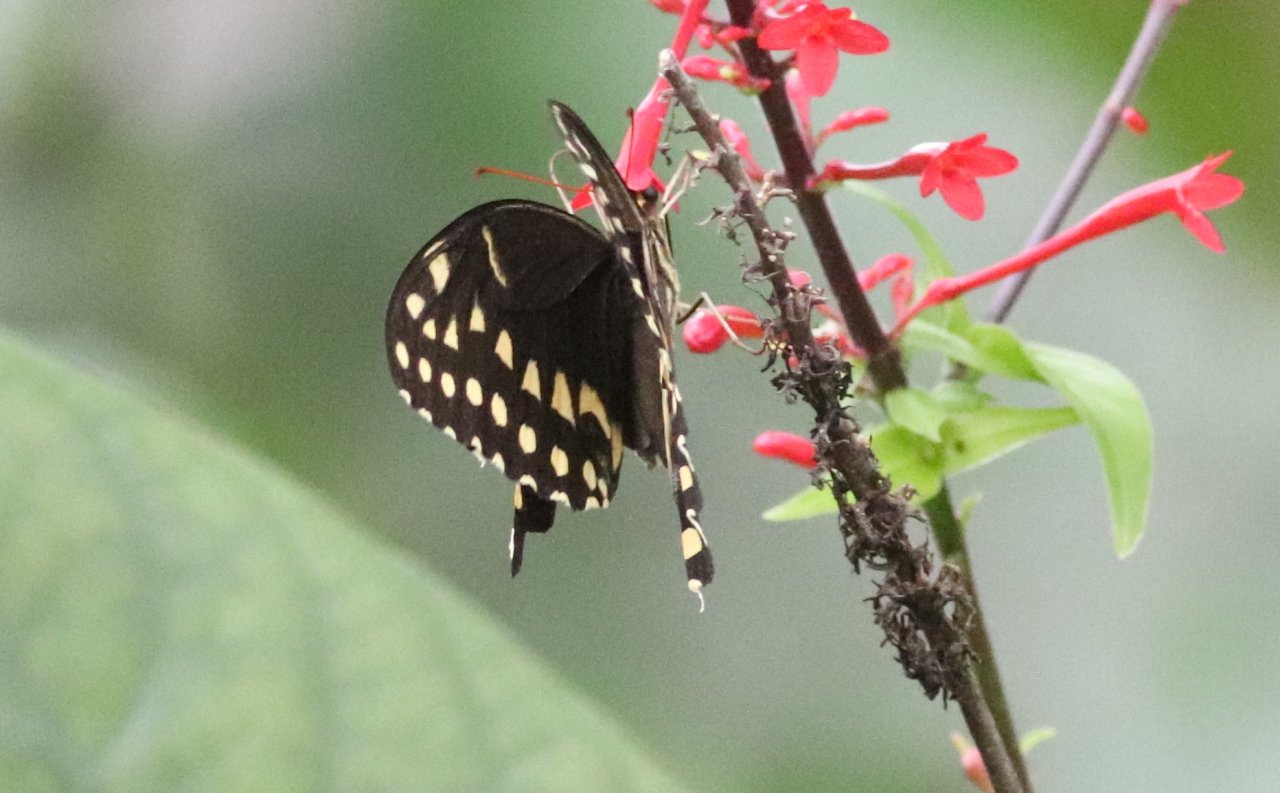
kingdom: Animalia
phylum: Arthropoda
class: Insecta
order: Lepidoptera
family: Papilionidae
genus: Pterourus
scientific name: Pterourus palamedes
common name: Palamedes Swallowtail
